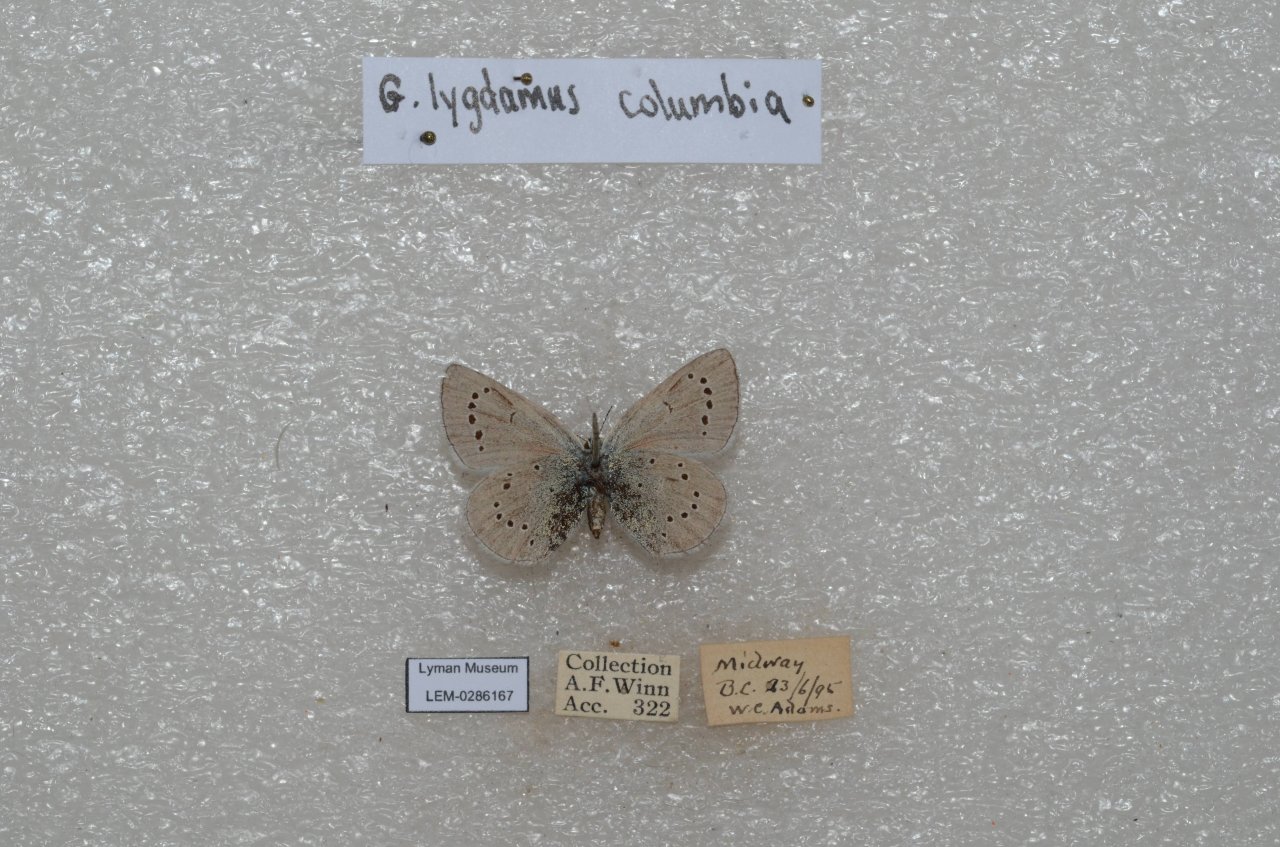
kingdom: Animalia
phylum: Arthropoda
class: Insecta
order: Lepidoptera
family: Lycaenidae
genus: Glaucopsyche
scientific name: Glaucopsyche lygdamus
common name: Silvery Blue
